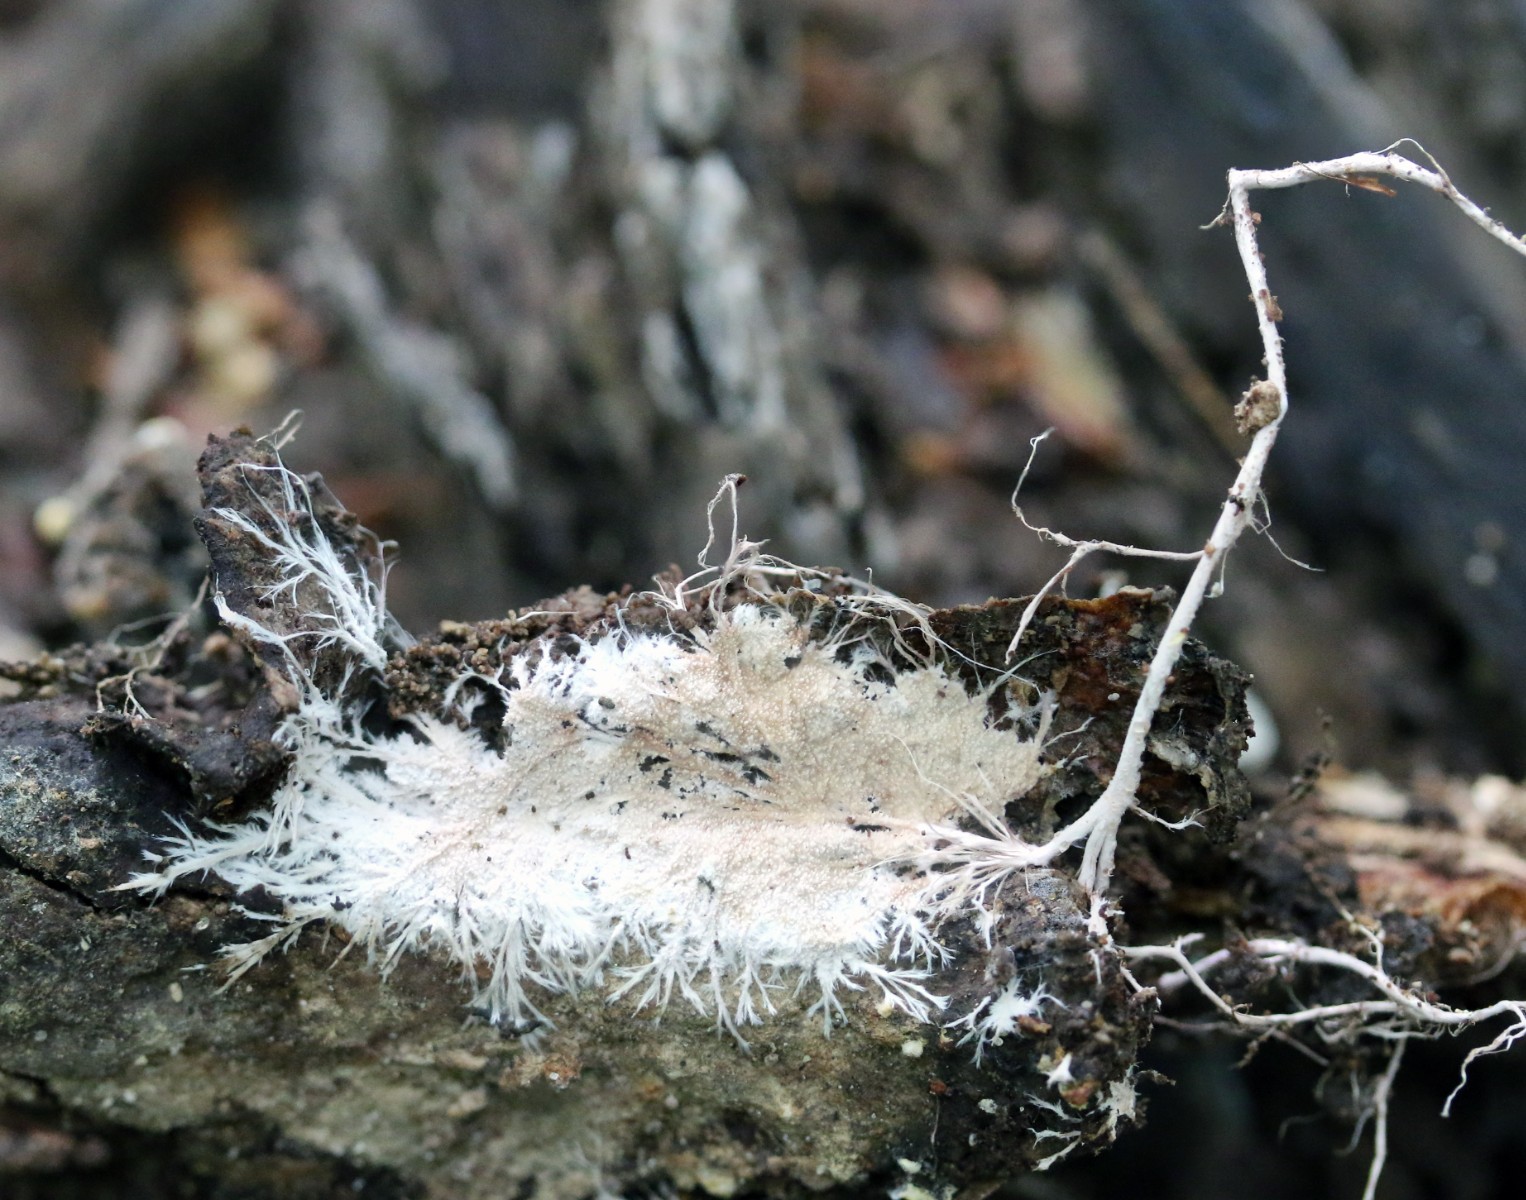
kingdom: Fungi
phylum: Basidiomycota
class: Agaricomycetes
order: Polyporales
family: Steccherinaceae
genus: Steccherinum
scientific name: Steccherinum fimbriatum
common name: trådet skønpig
